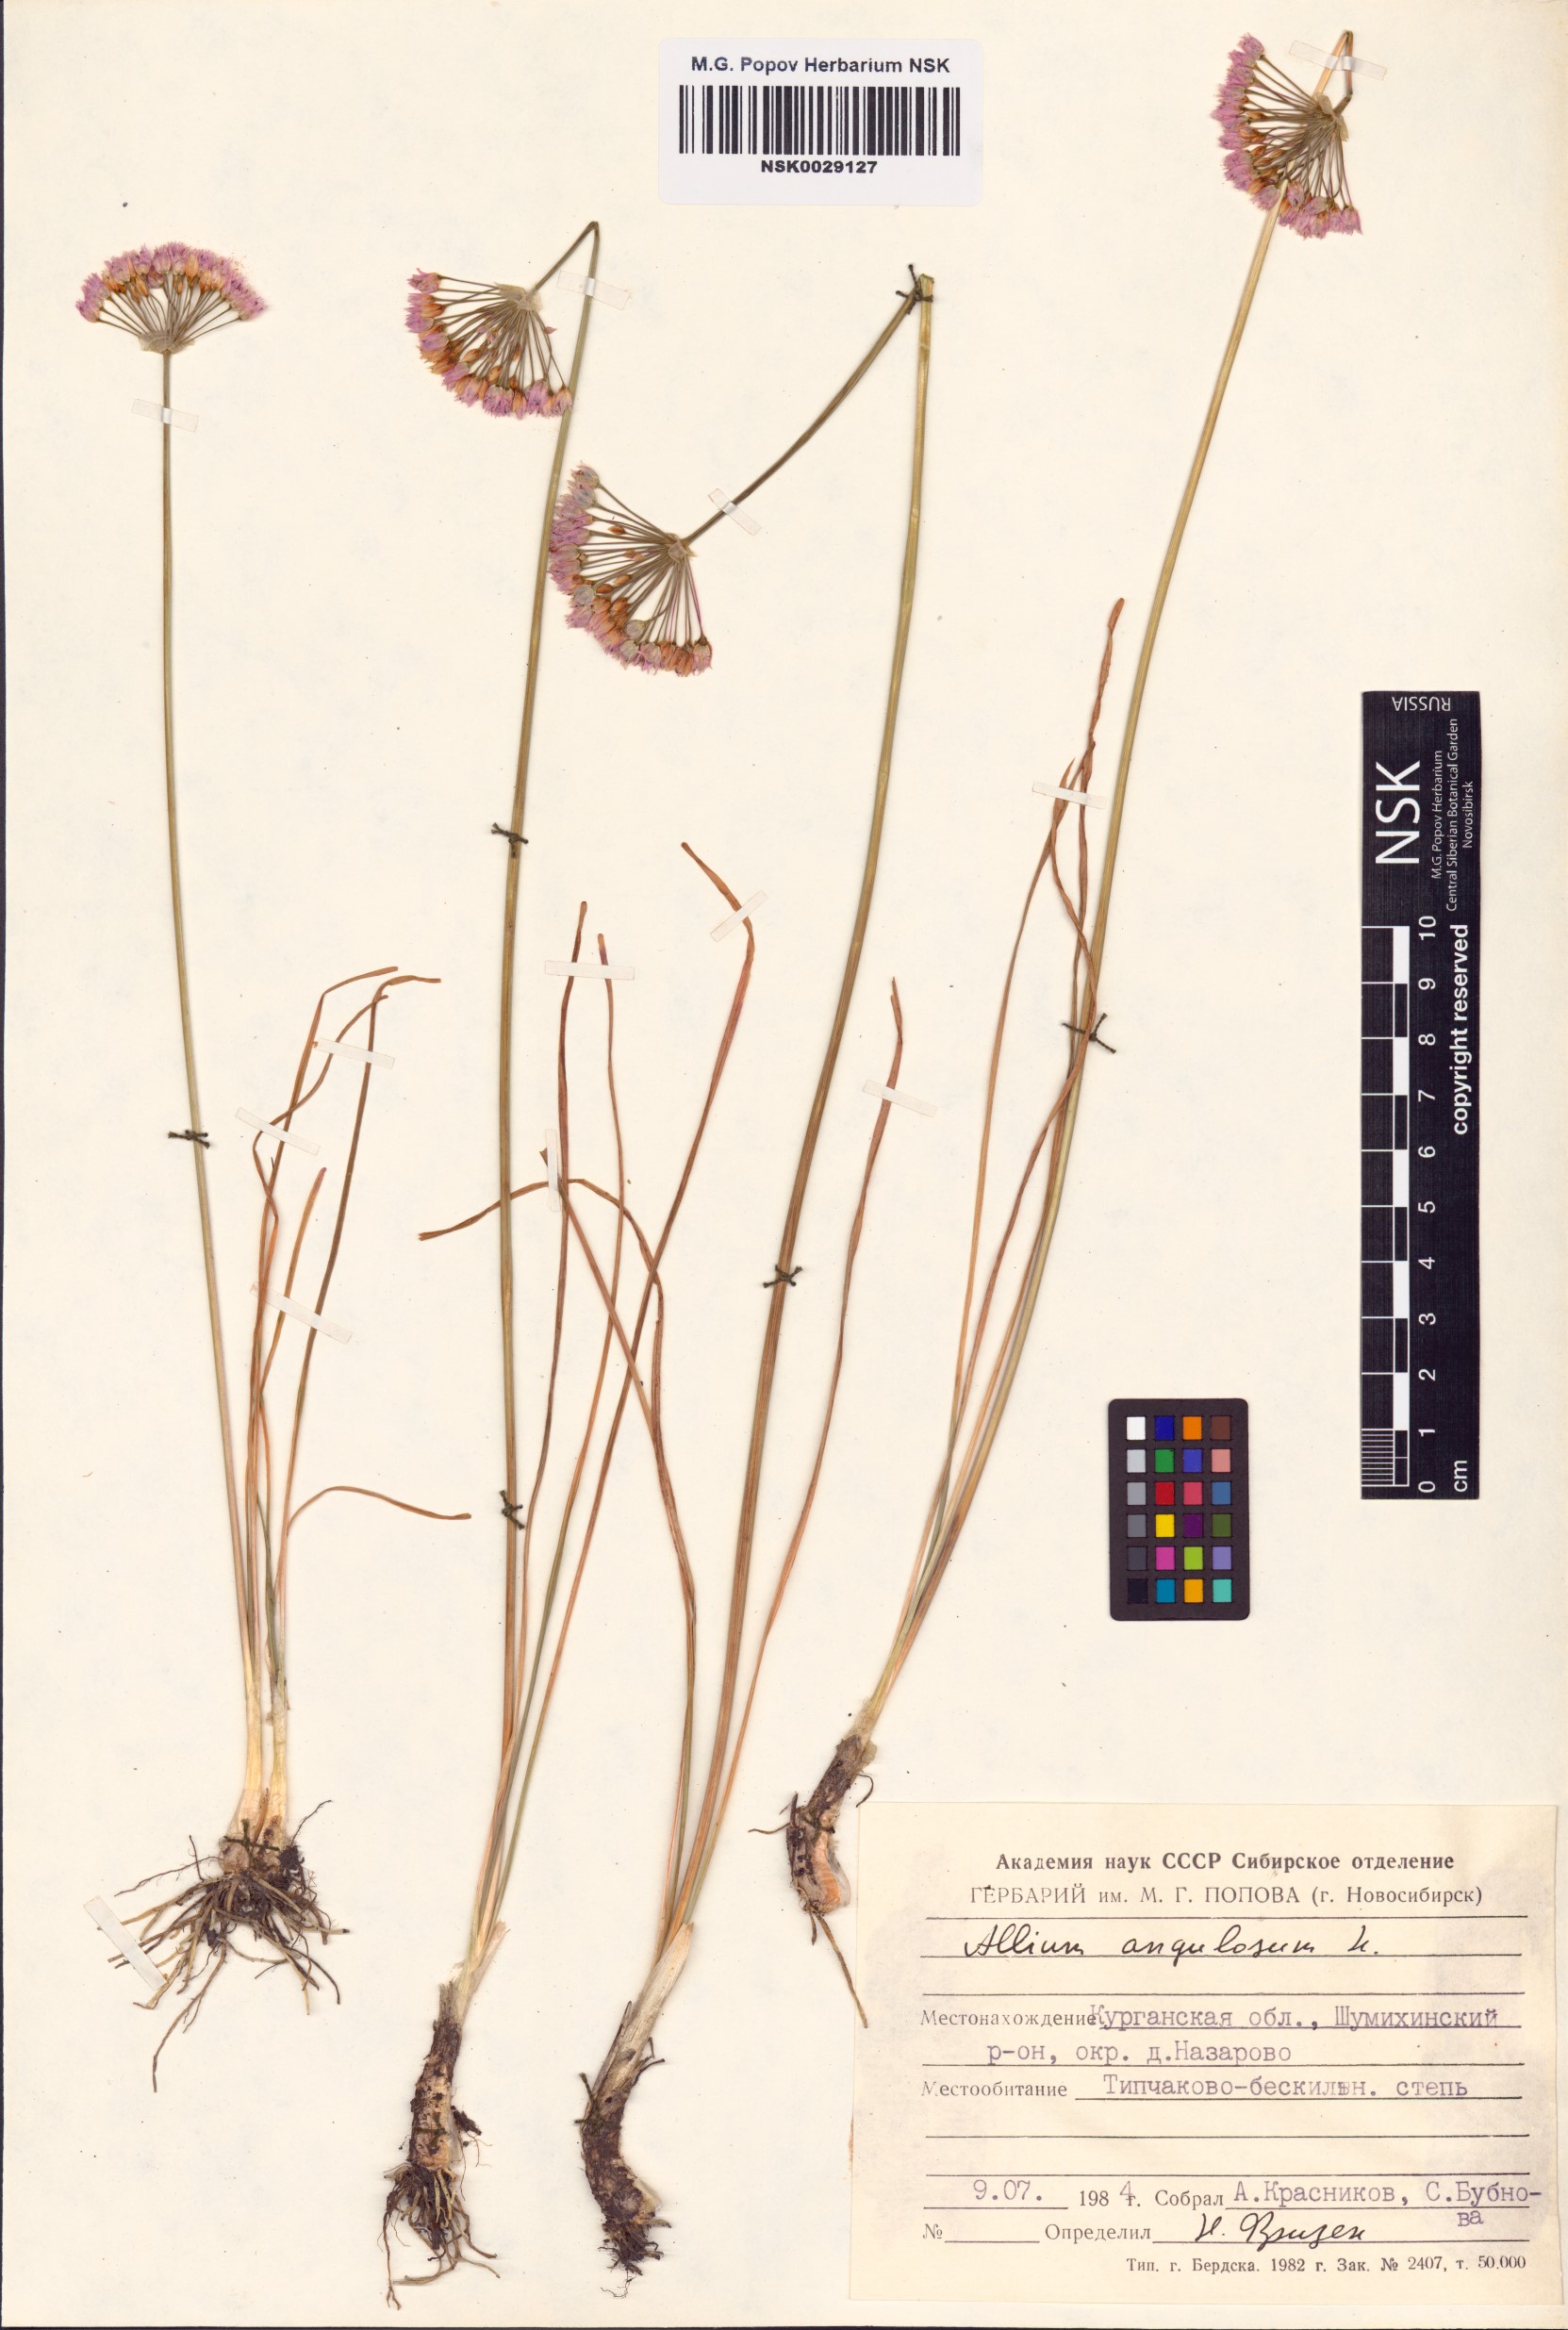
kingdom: Plantae
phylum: Tracheophyta
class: Liliopsida
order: Asparagales
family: Amaryllidaceae
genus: Allium
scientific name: Allium angulosum
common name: Mouse garlic
